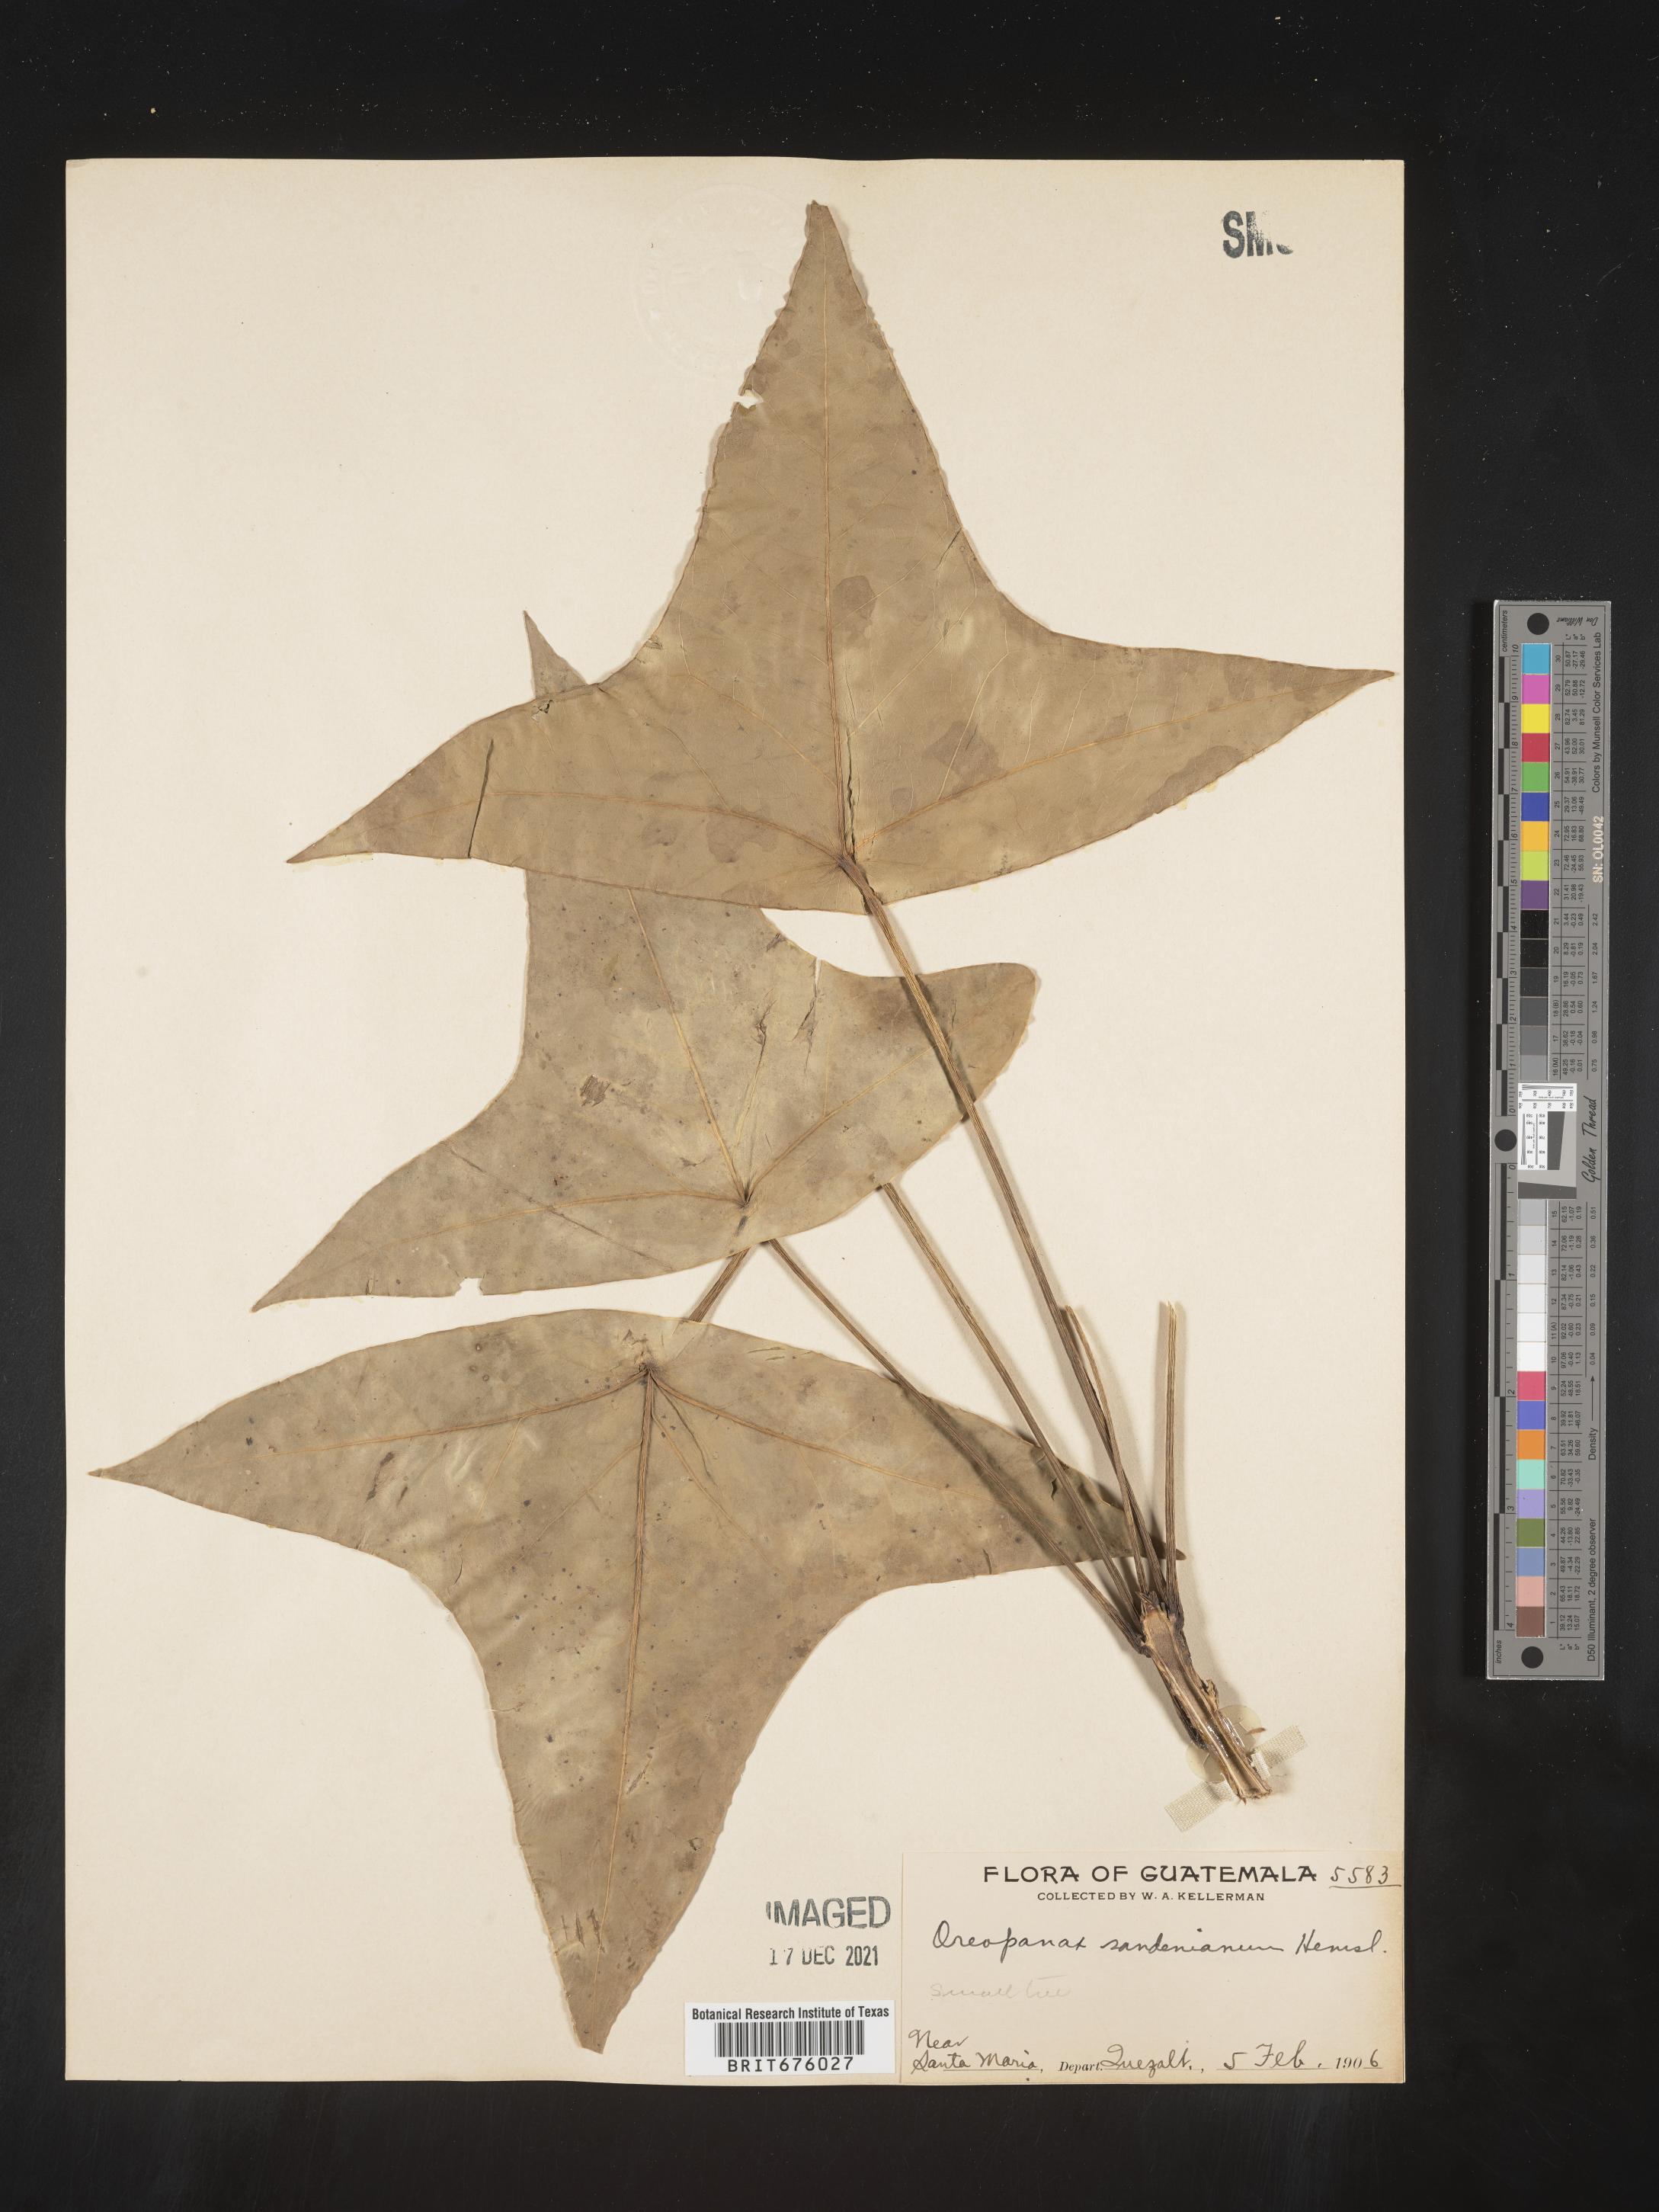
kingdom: Plantae
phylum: Tracheophyta
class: Magnoliopsida
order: Apiales
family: Araliaceae
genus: Oreopanax
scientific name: Oreopanax
